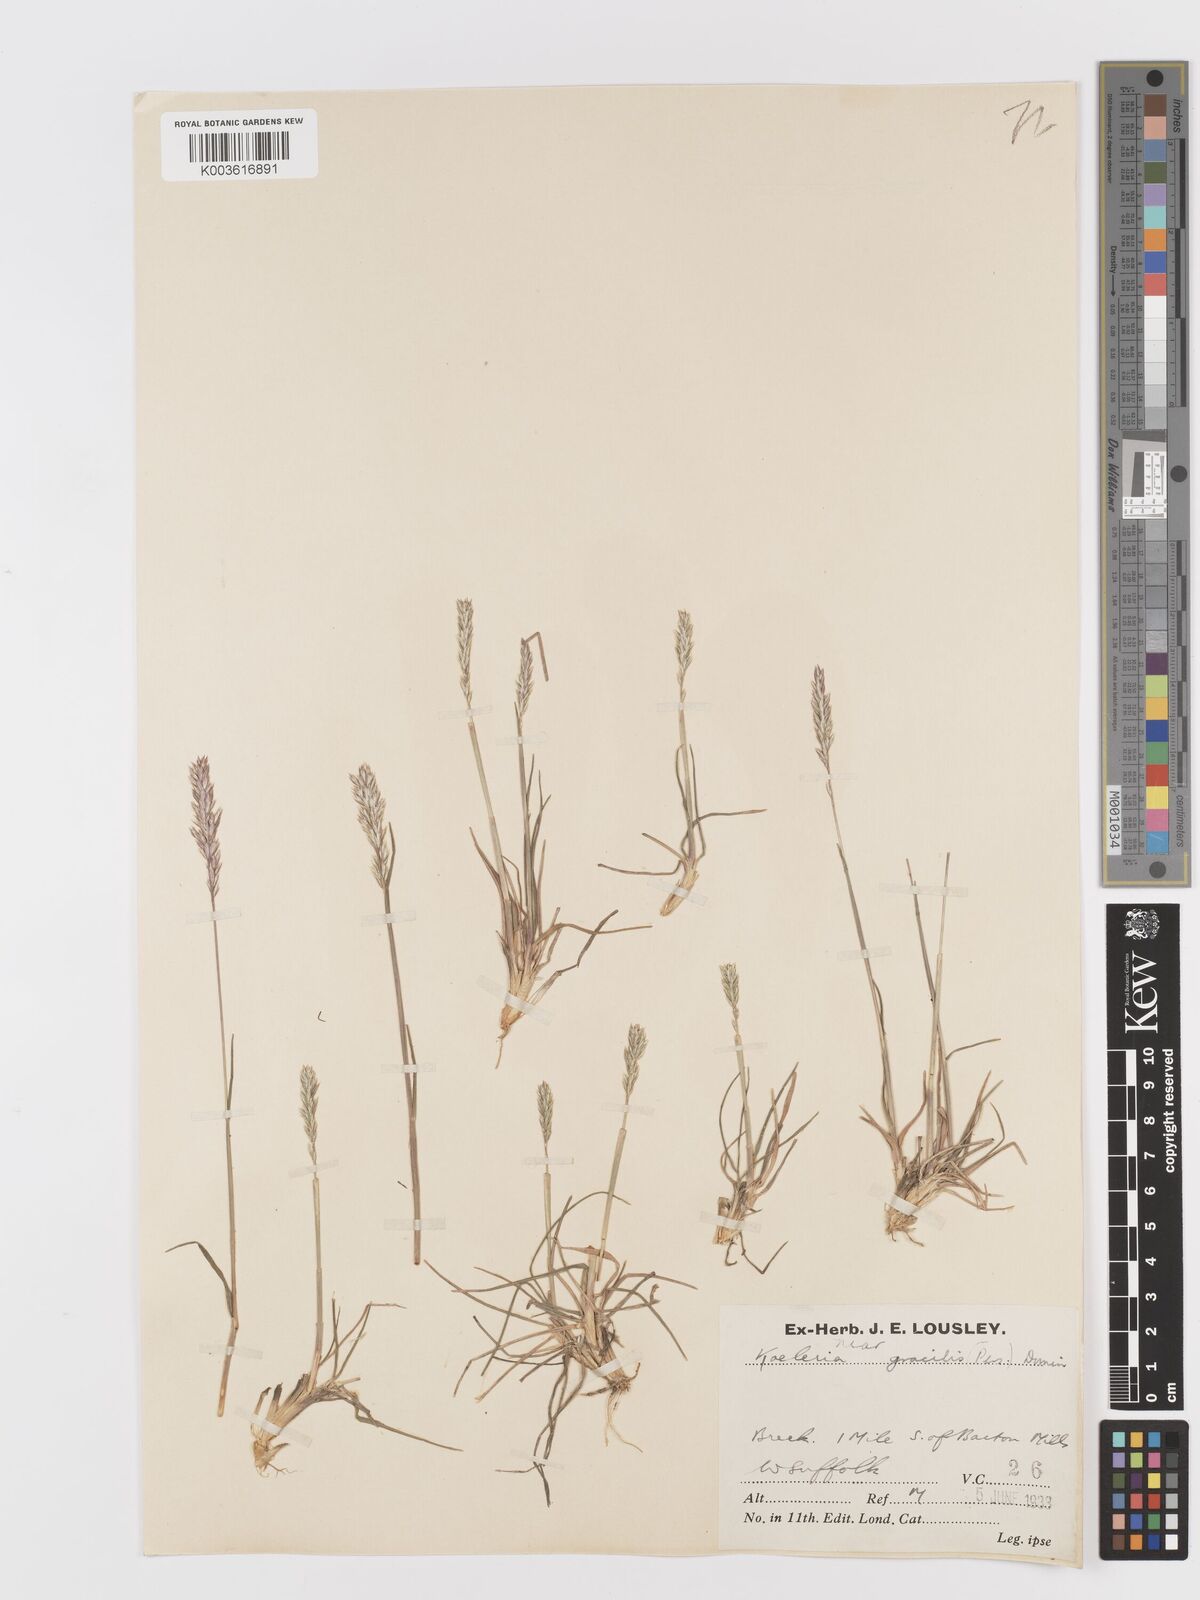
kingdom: Plantae
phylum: Tracheophyta
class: Liliopsida
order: Poales
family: Poaceae
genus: Koeleria
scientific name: Koeleria macrantha
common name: Crested hair-grass
